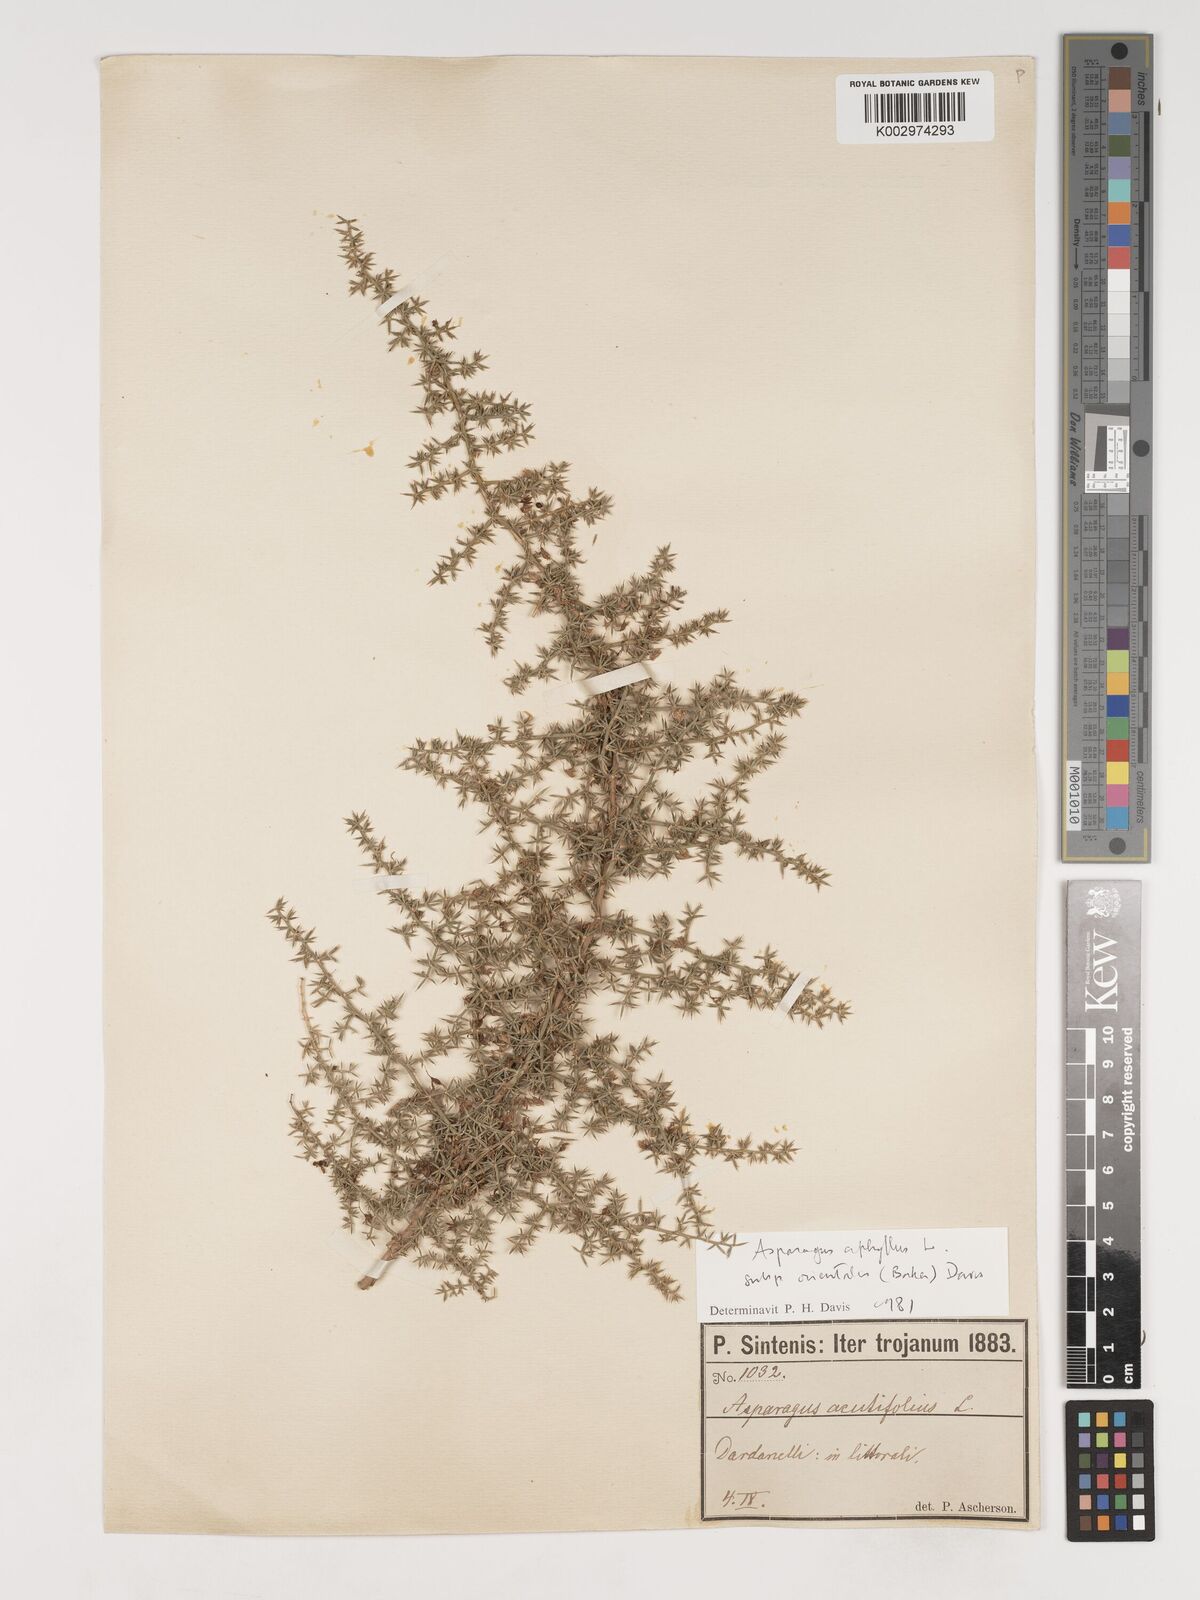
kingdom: Plantae
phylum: Tracheophyta
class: Liliopsida
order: Asparagales
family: Asparagaceae
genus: Asparagus
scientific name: Asparagus aphyllus
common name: Mediterranean asparagus
